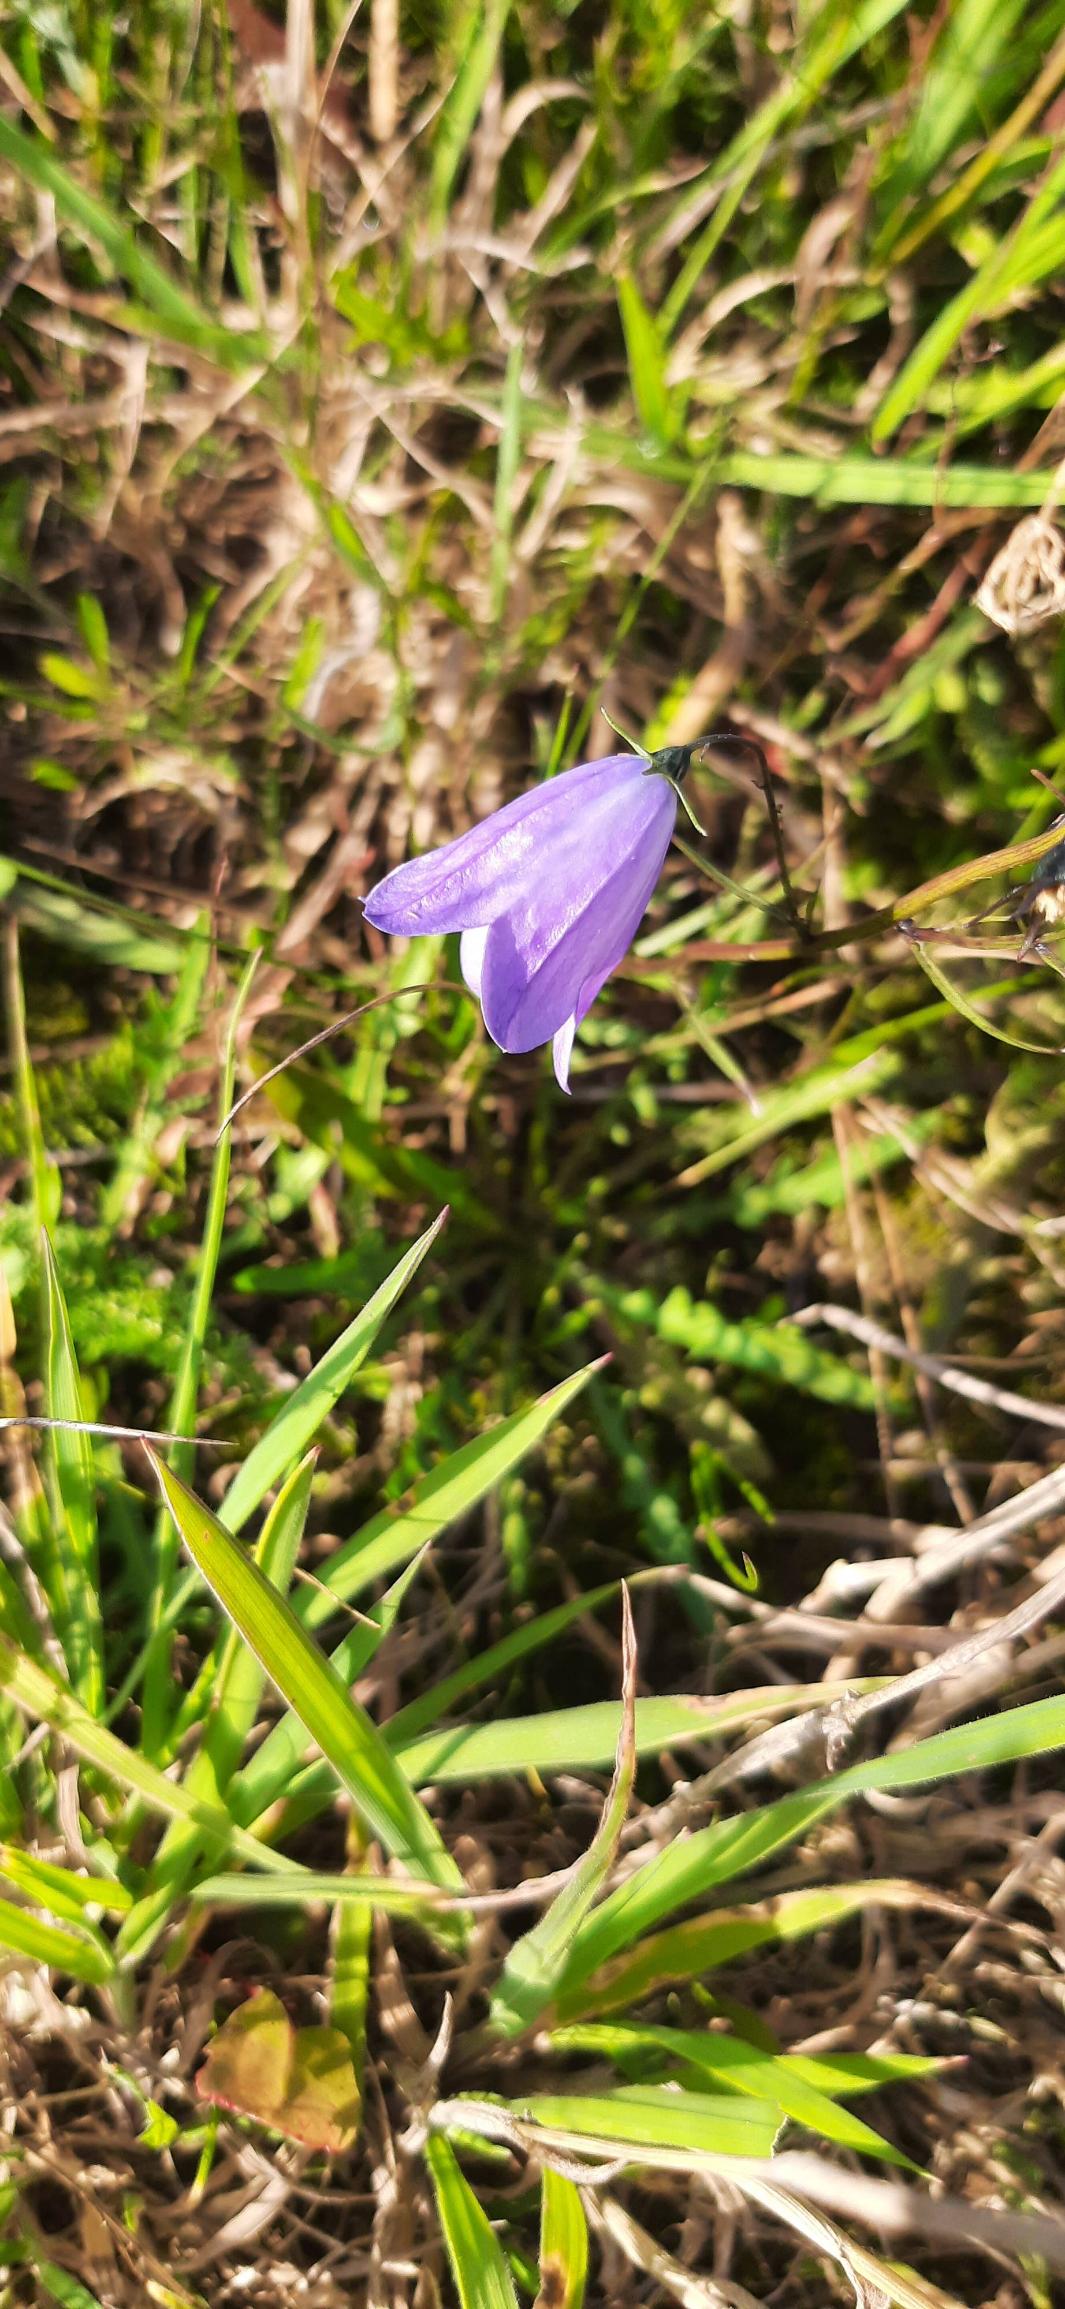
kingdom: Plantae
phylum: Tracheophyta
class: Magnoliopsida
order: Asterales
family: Campanulaceae
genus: Campanula
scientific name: Campanula rotundifolia
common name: Liden klokke
